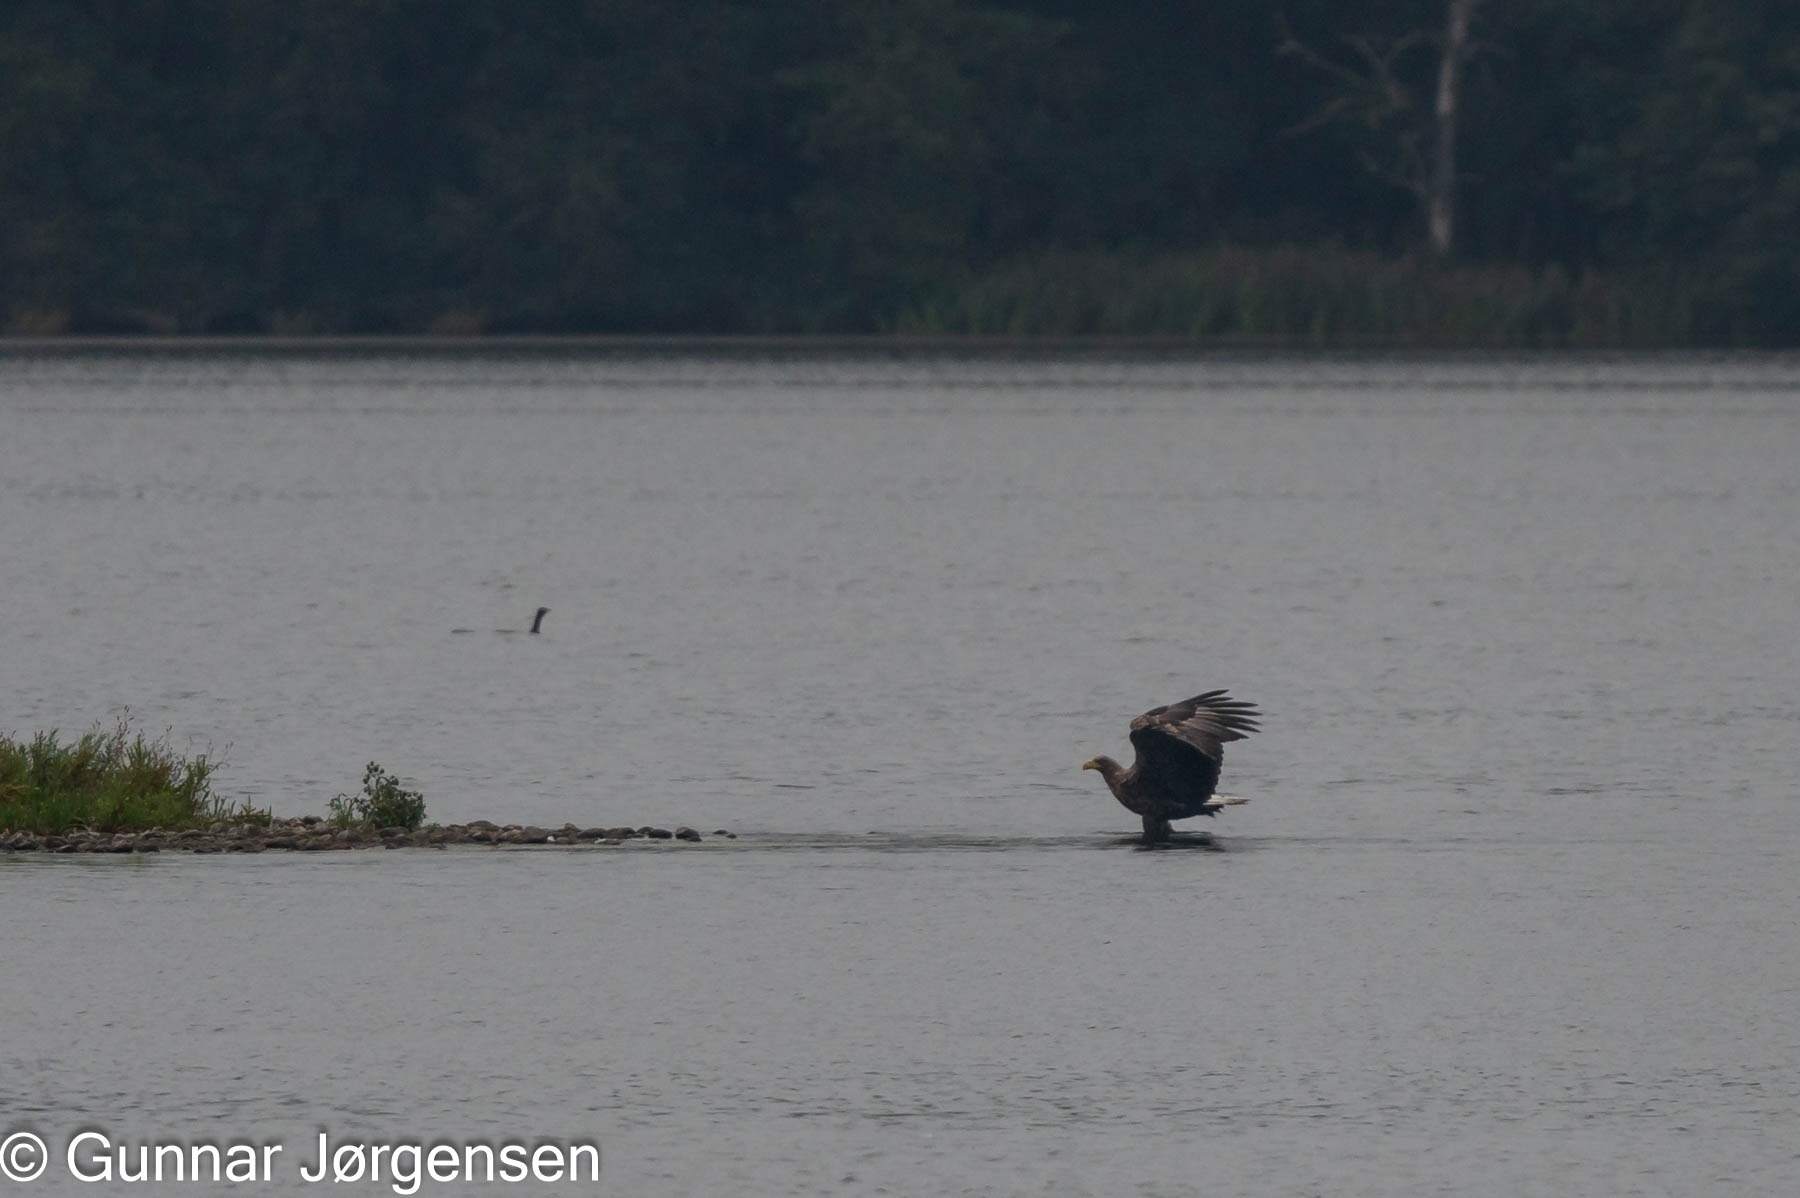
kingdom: Animalia
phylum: Chordata
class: Aves
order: Accipitriformes
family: Accipitridae
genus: Haliaeetus
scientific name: Haliaeetus albicilla
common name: Havørn
